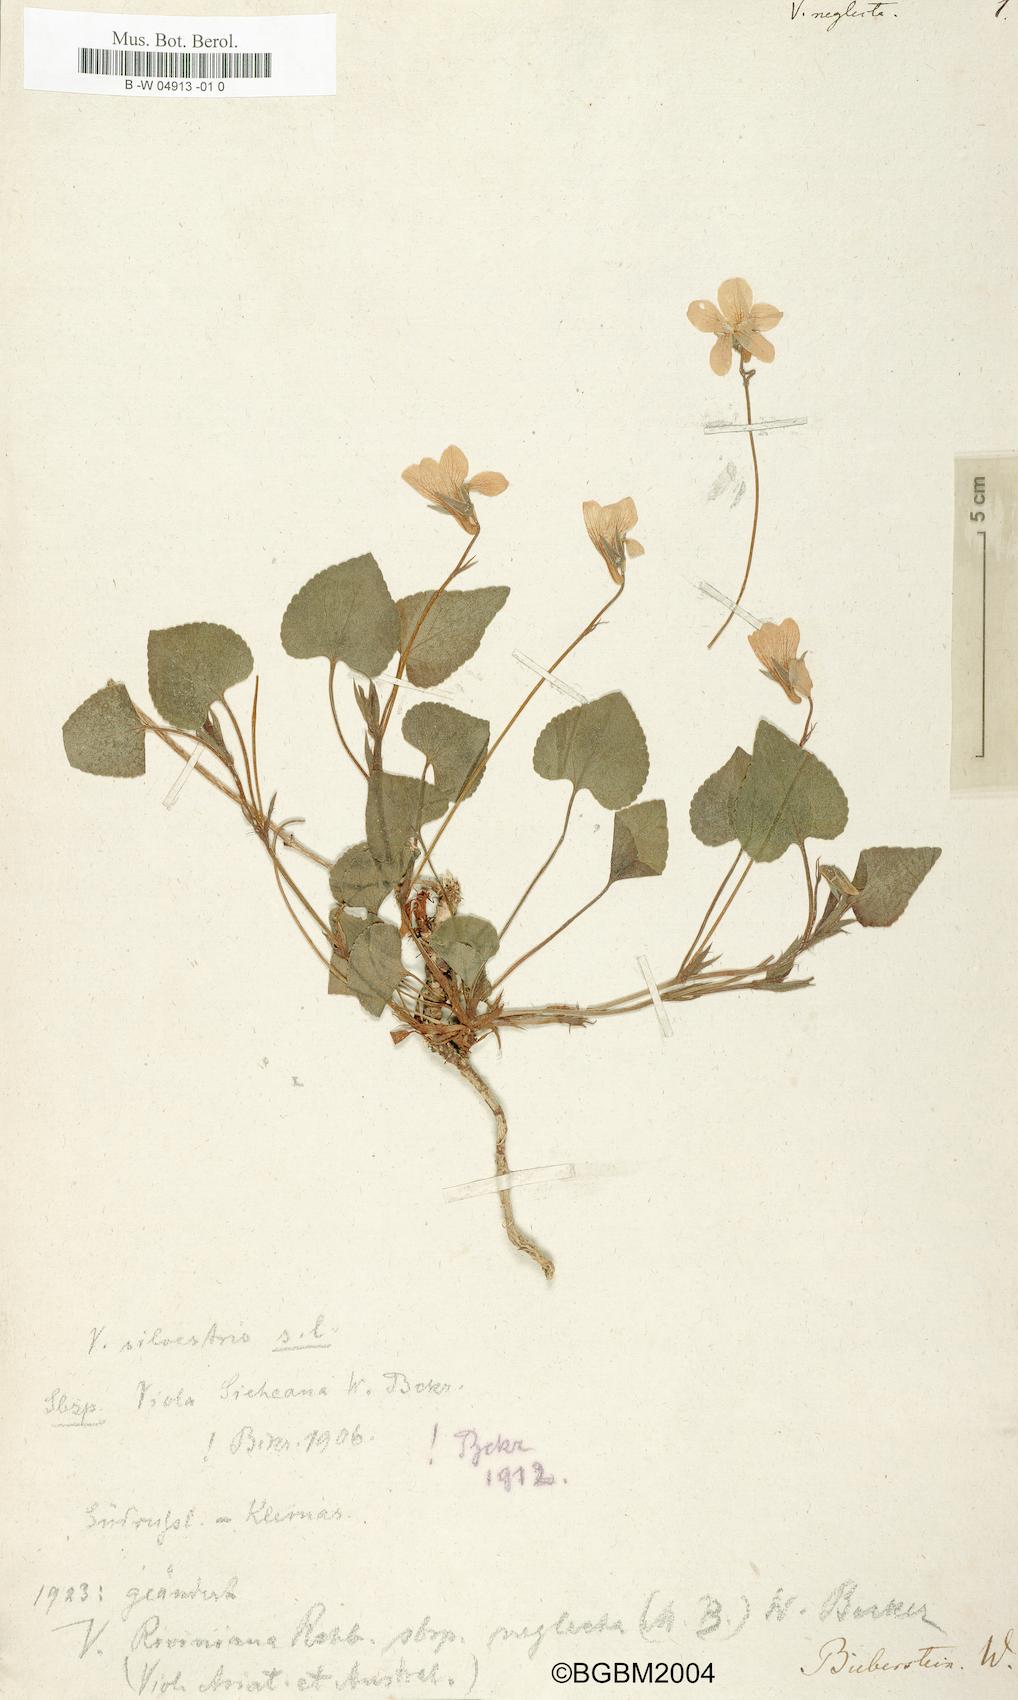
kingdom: Plantae
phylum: Tracheophyta
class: Magnoliopsida
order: Malpighiales
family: Violaceae
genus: Viola
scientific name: Viola neglecta
